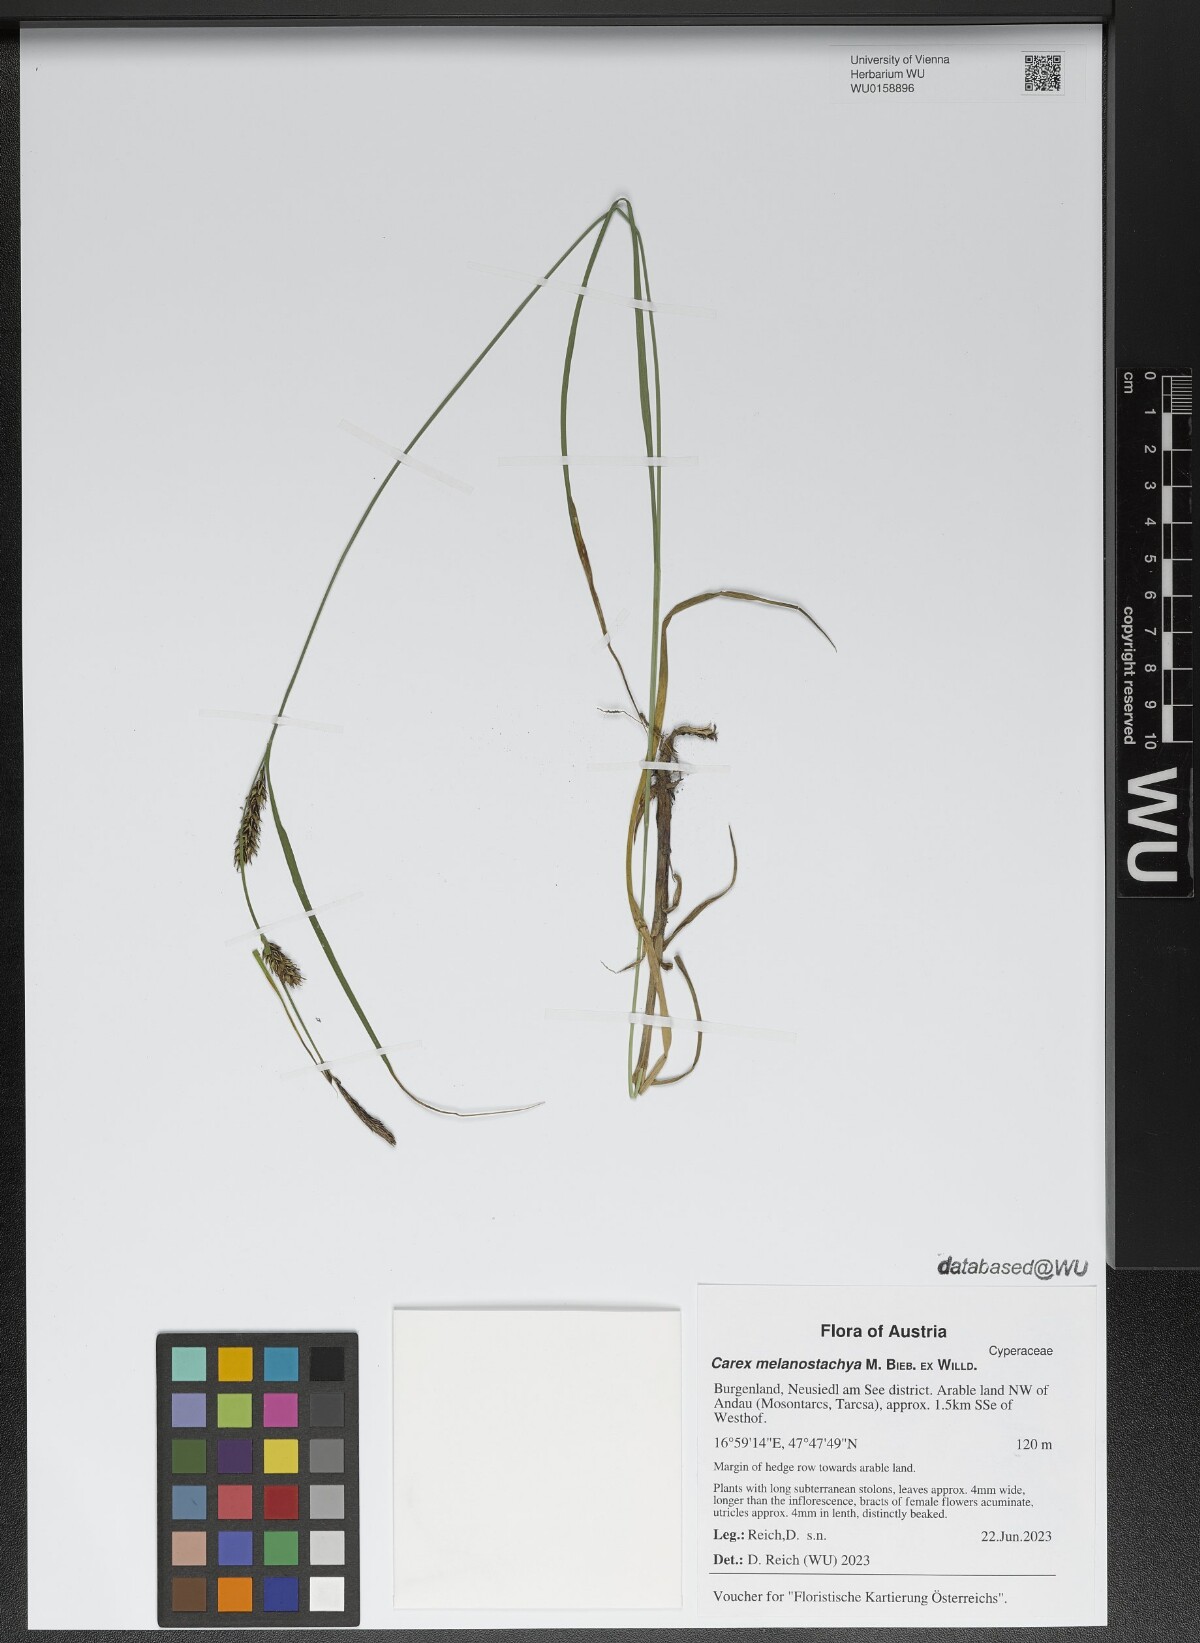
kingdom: Plantae
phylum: Tracheophyta
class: Liliopsida
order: Poales
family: Cyperaceae
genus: Carex
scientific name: Carex melanostachya
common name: Black-spiked sedge
